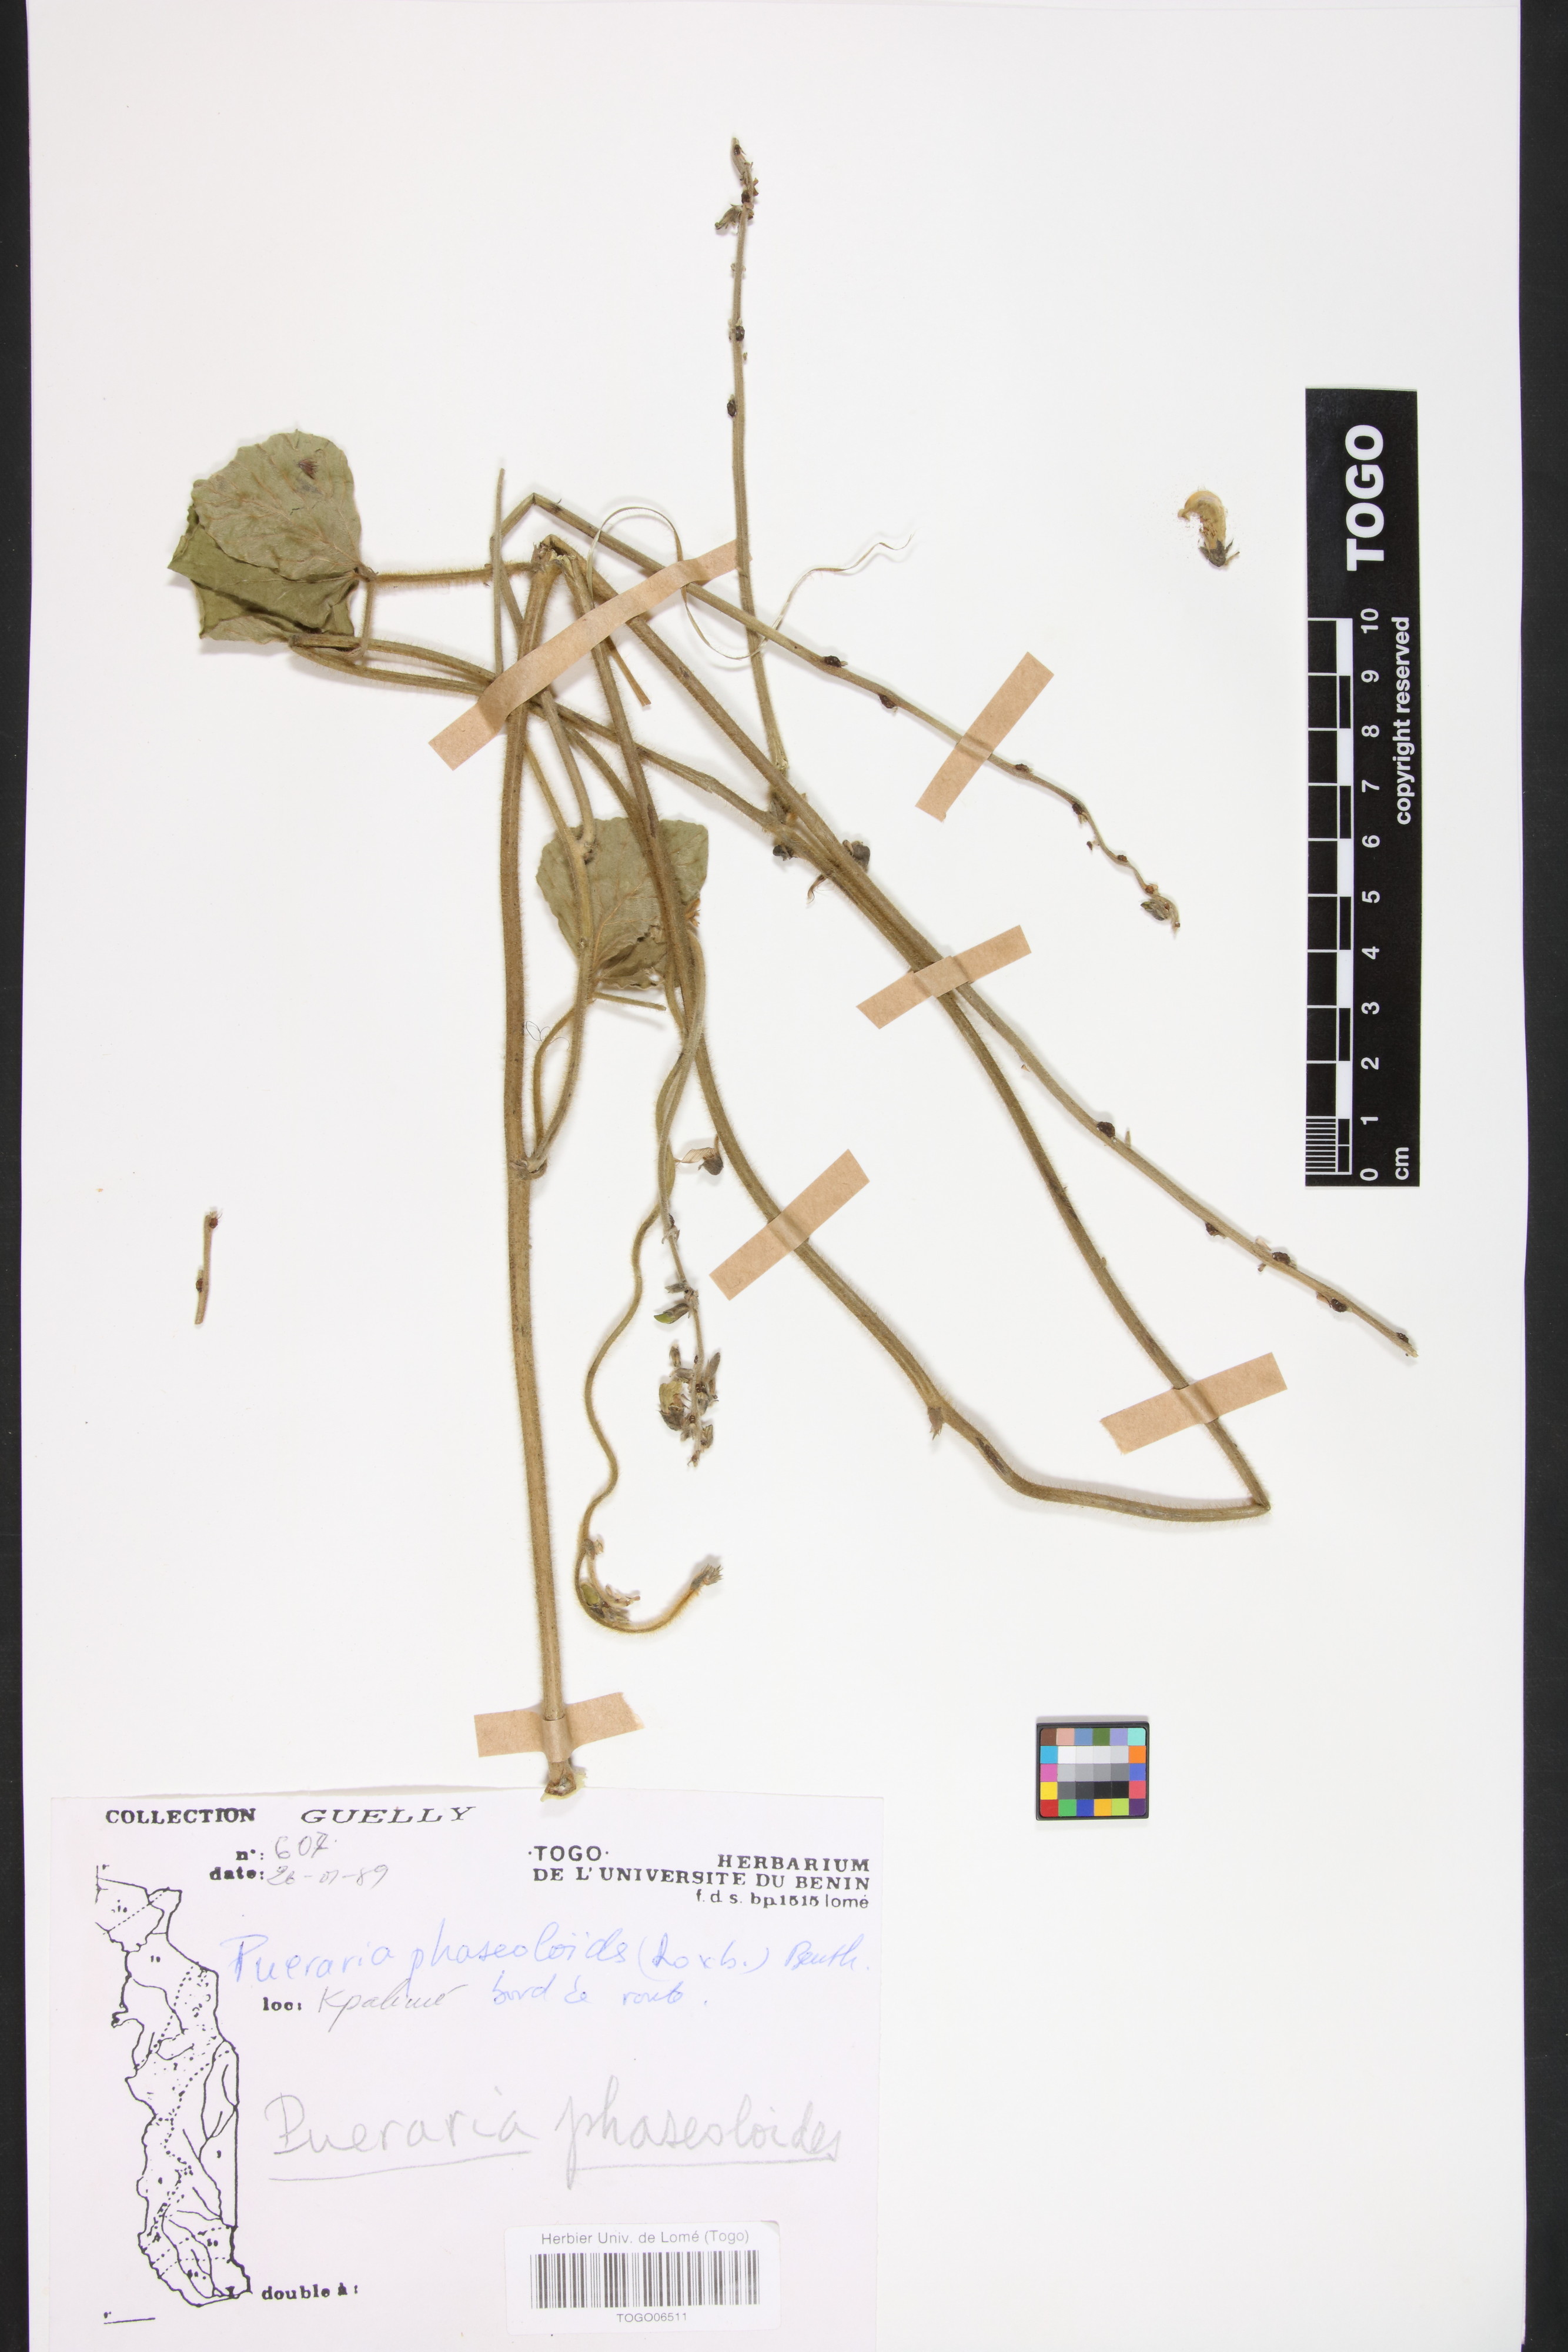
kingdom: Plantae
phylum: Tracheophyta
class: Magnoliopsida
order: Fabales
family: Fabaceae
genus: Neustanthus
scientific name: Neustanthus phaseoloides
